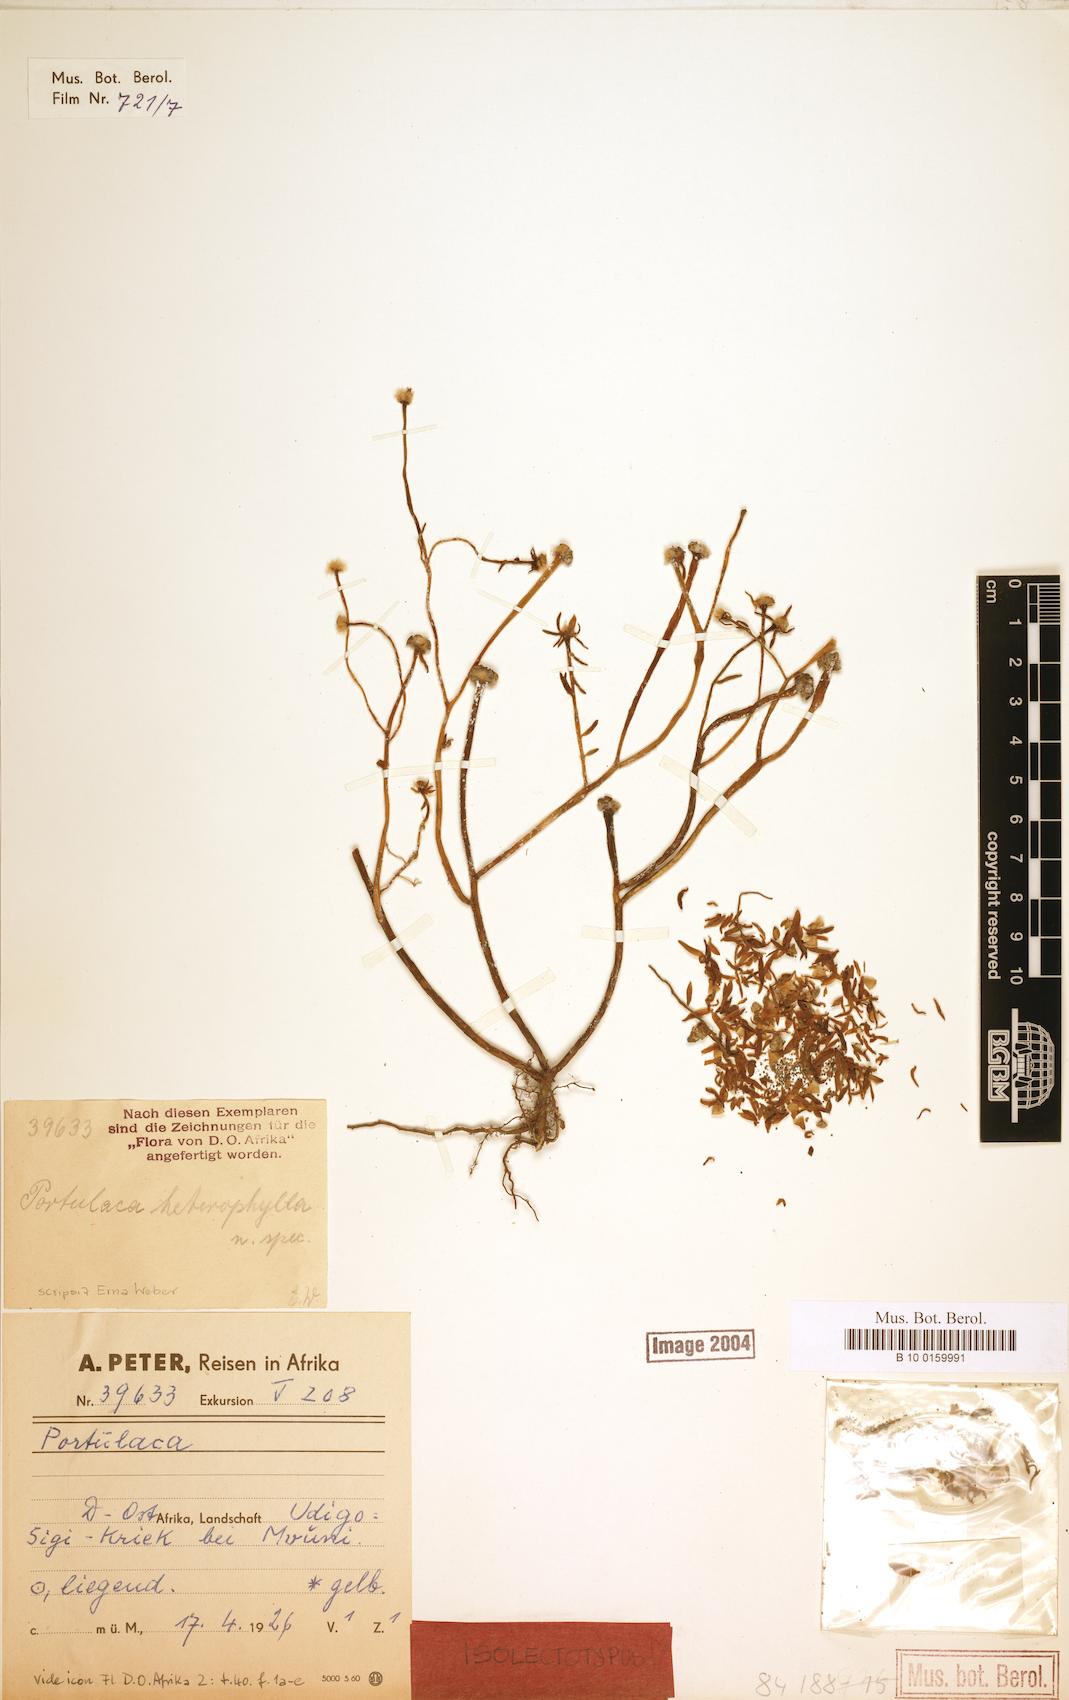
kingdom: Plantae
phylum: Tracheophyta
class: Magnoliopsida
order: Caryophyllales
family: Portulacaceae
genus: Portulaca
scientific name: Portulaca heterophylla
